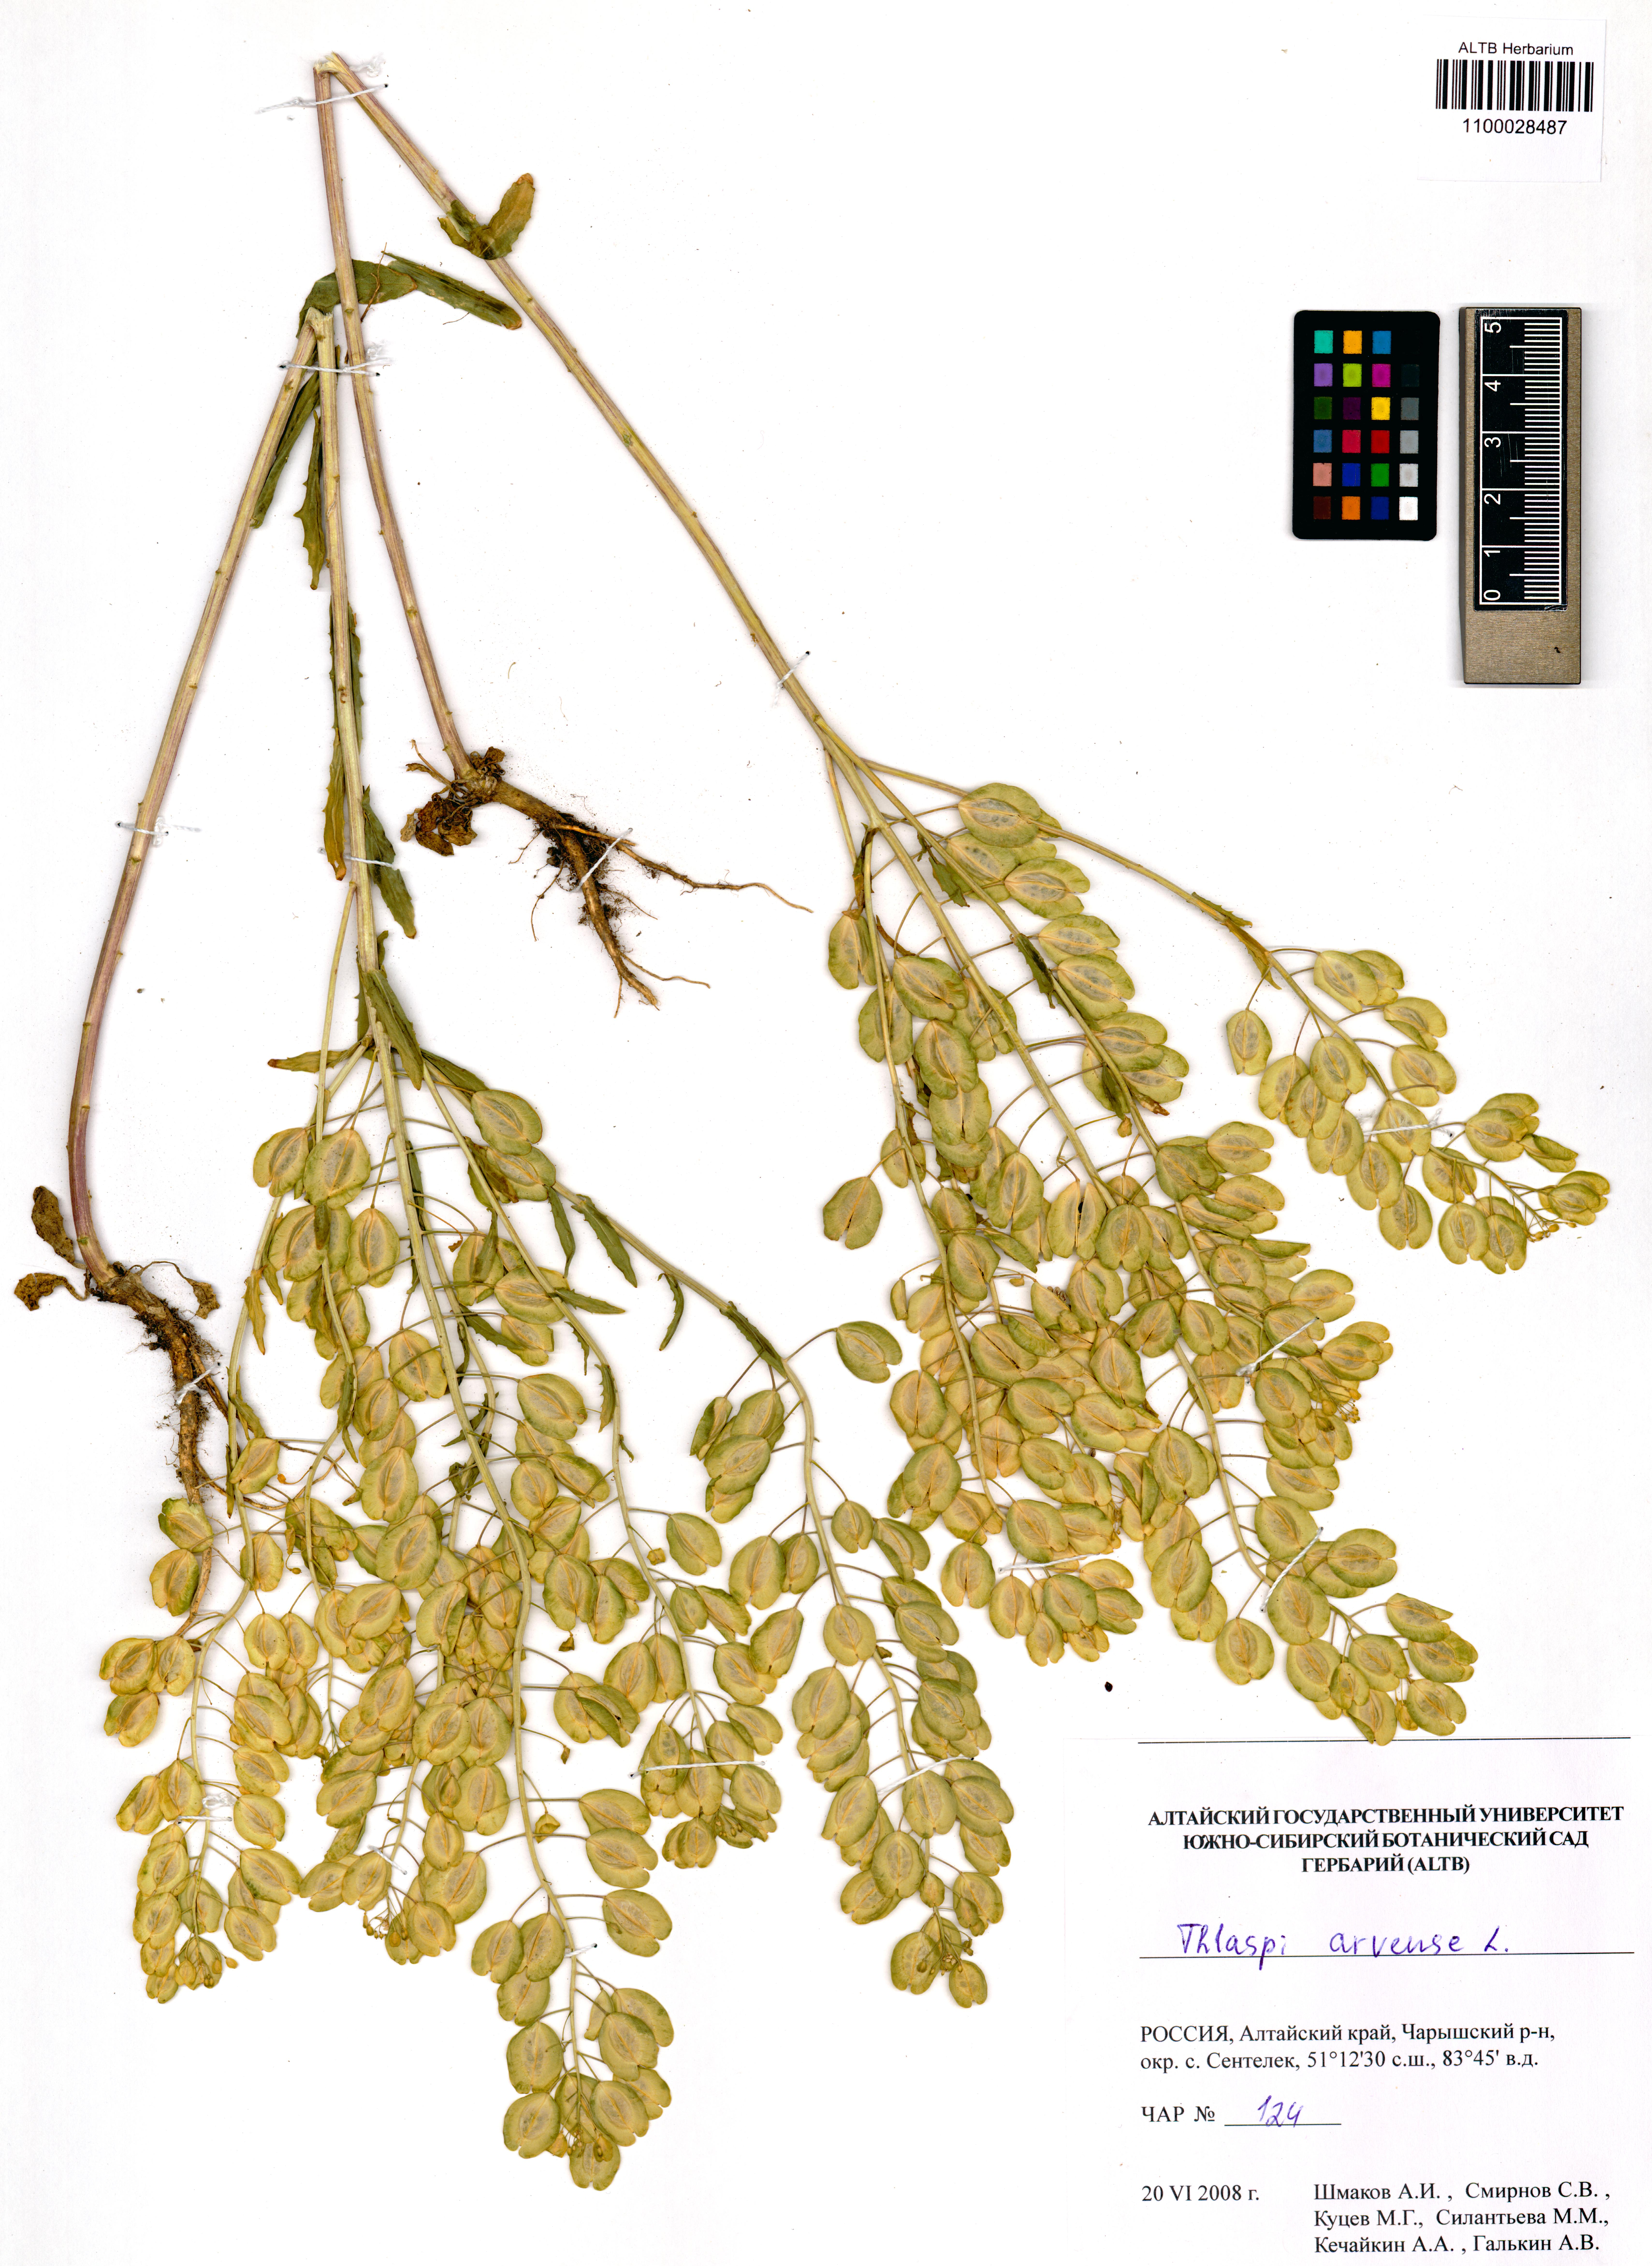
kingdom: Plantae
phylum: Tracheophyta
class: Magnoliopsida
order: Brassicales
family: Brassicaceae
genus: Thlaspi
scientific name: Thlaspi arvense
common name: Field pennycress
